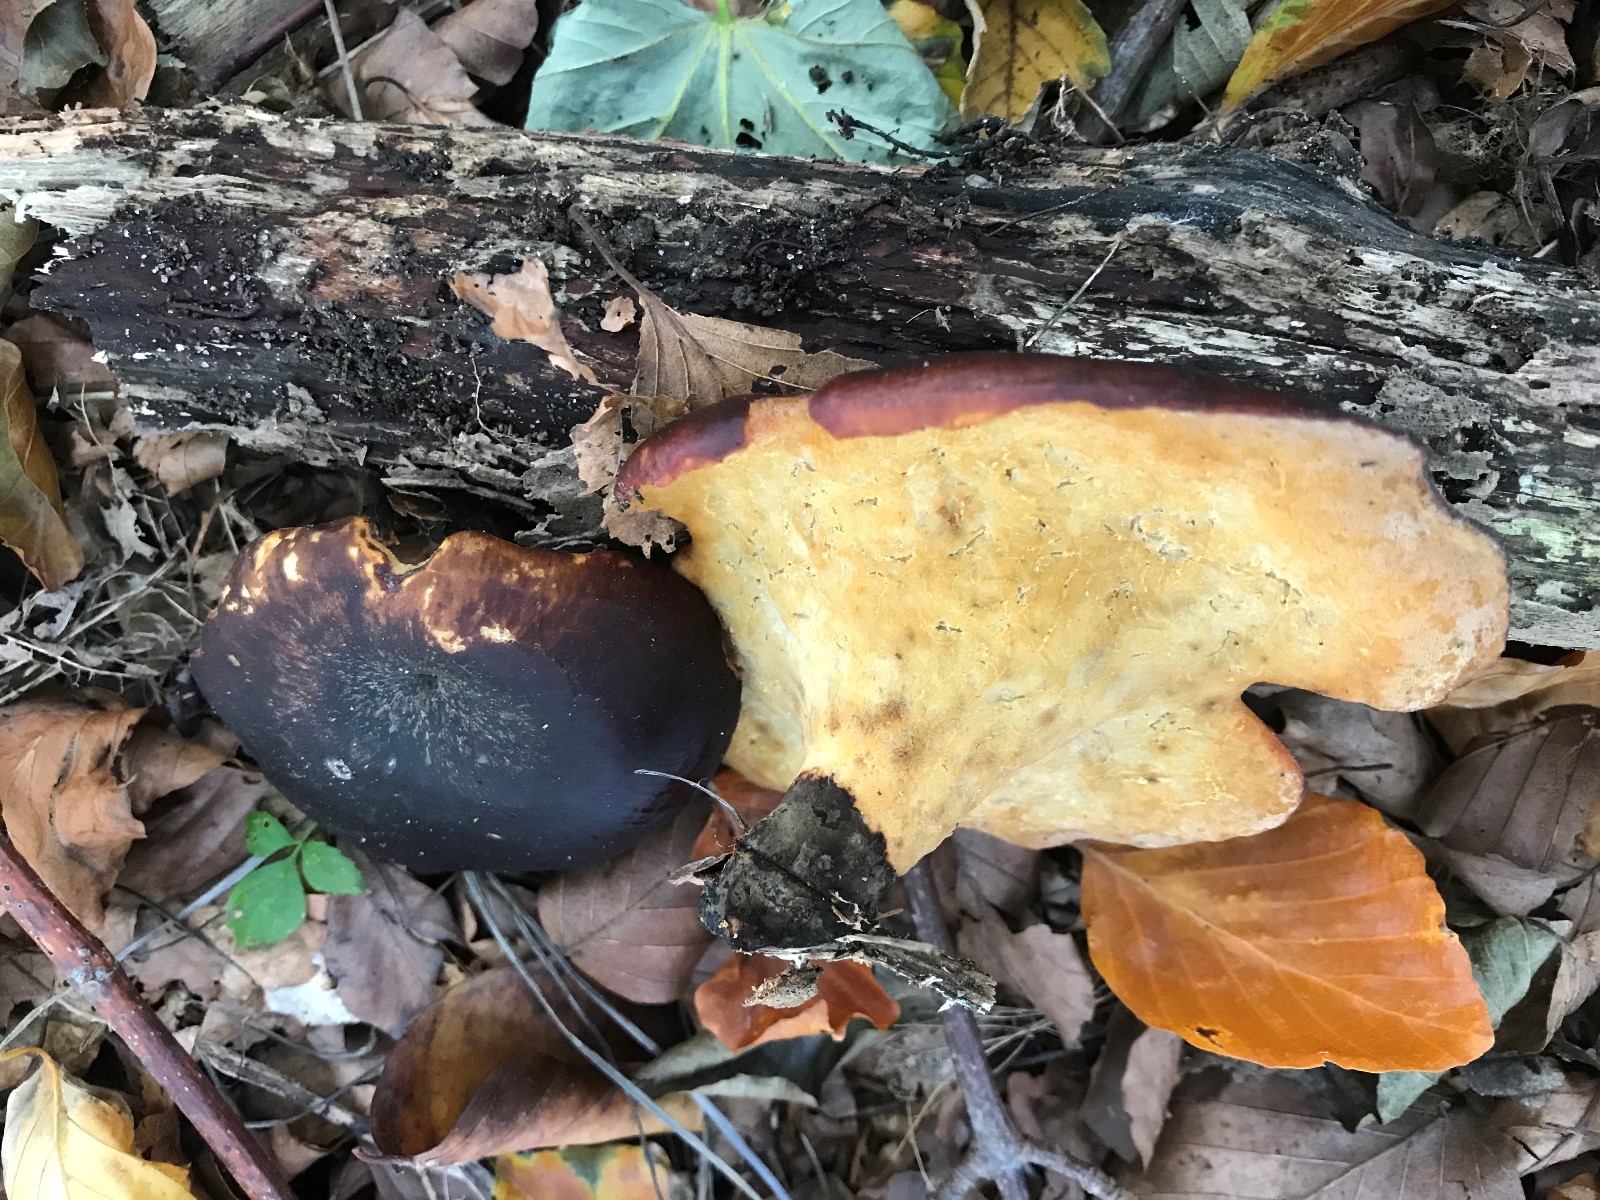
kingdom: Fungi
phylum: Basidiomycota
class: Agaricomycetes
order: Polyporales
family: Polyporaceae
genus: Cerioporus
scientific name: Cerioporus varius
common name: foranderlig stilkporesvamp
